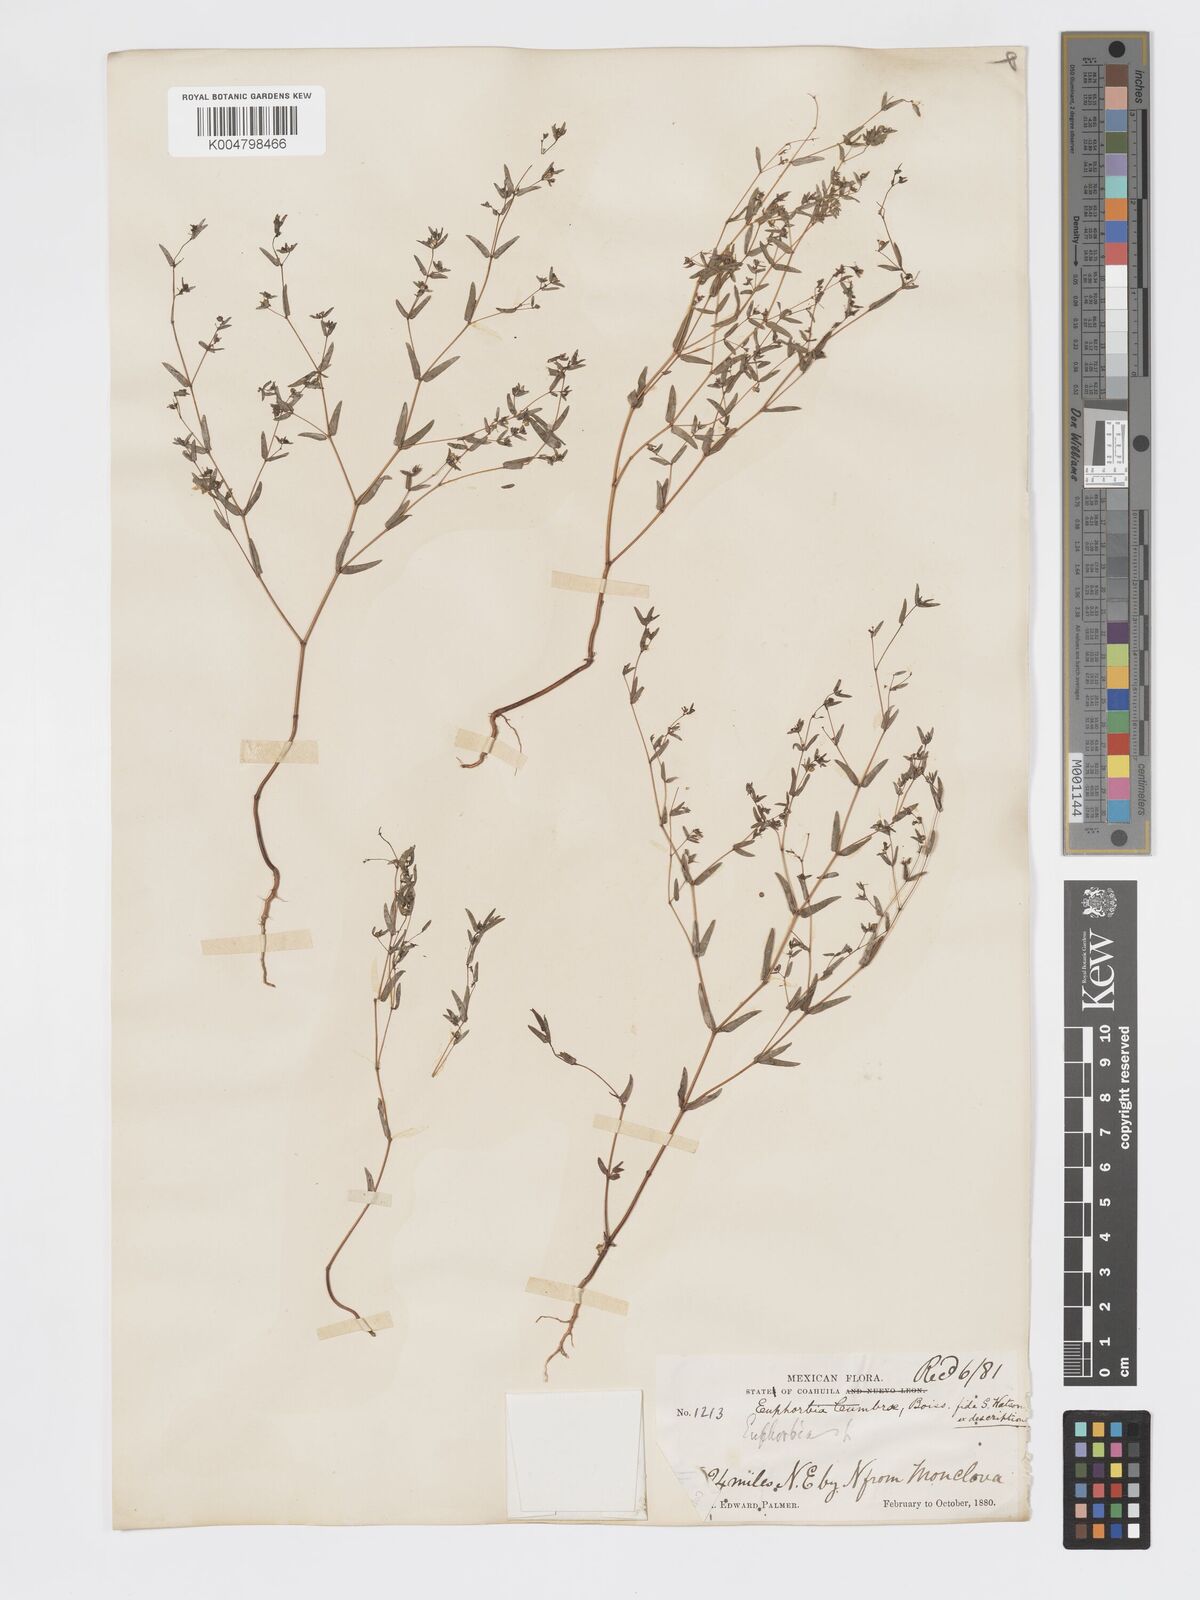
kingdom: Plantae
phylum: Tracheophyta
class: Magnoliopsida
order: Malpighiales
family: Euphorbiaceae
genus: Euphorbia
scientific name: Euphorbia cumbrae
